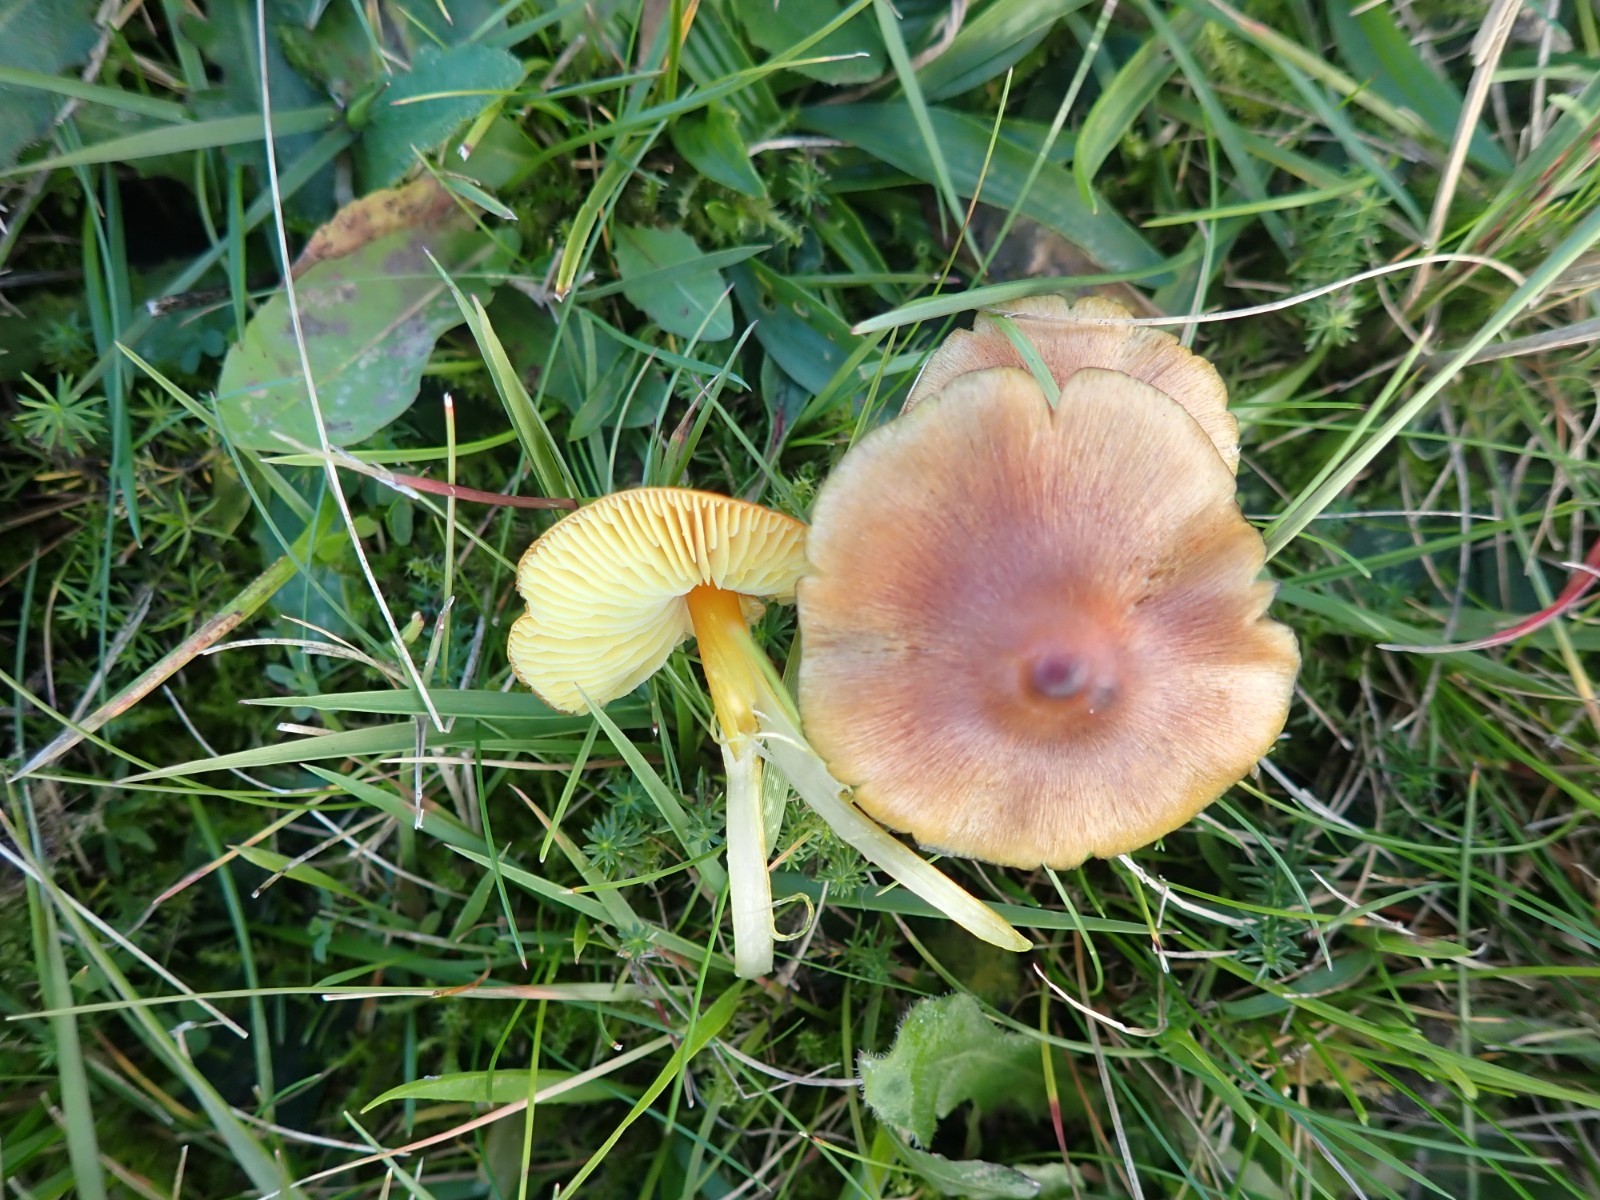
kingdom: Fungi
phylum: Basidiomycota
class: Agaricomycetes
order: Agaricales
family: Hygrophoraceae
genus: Hygrocybe
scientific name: Hygrocybe conica
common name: kegle-vokshat
